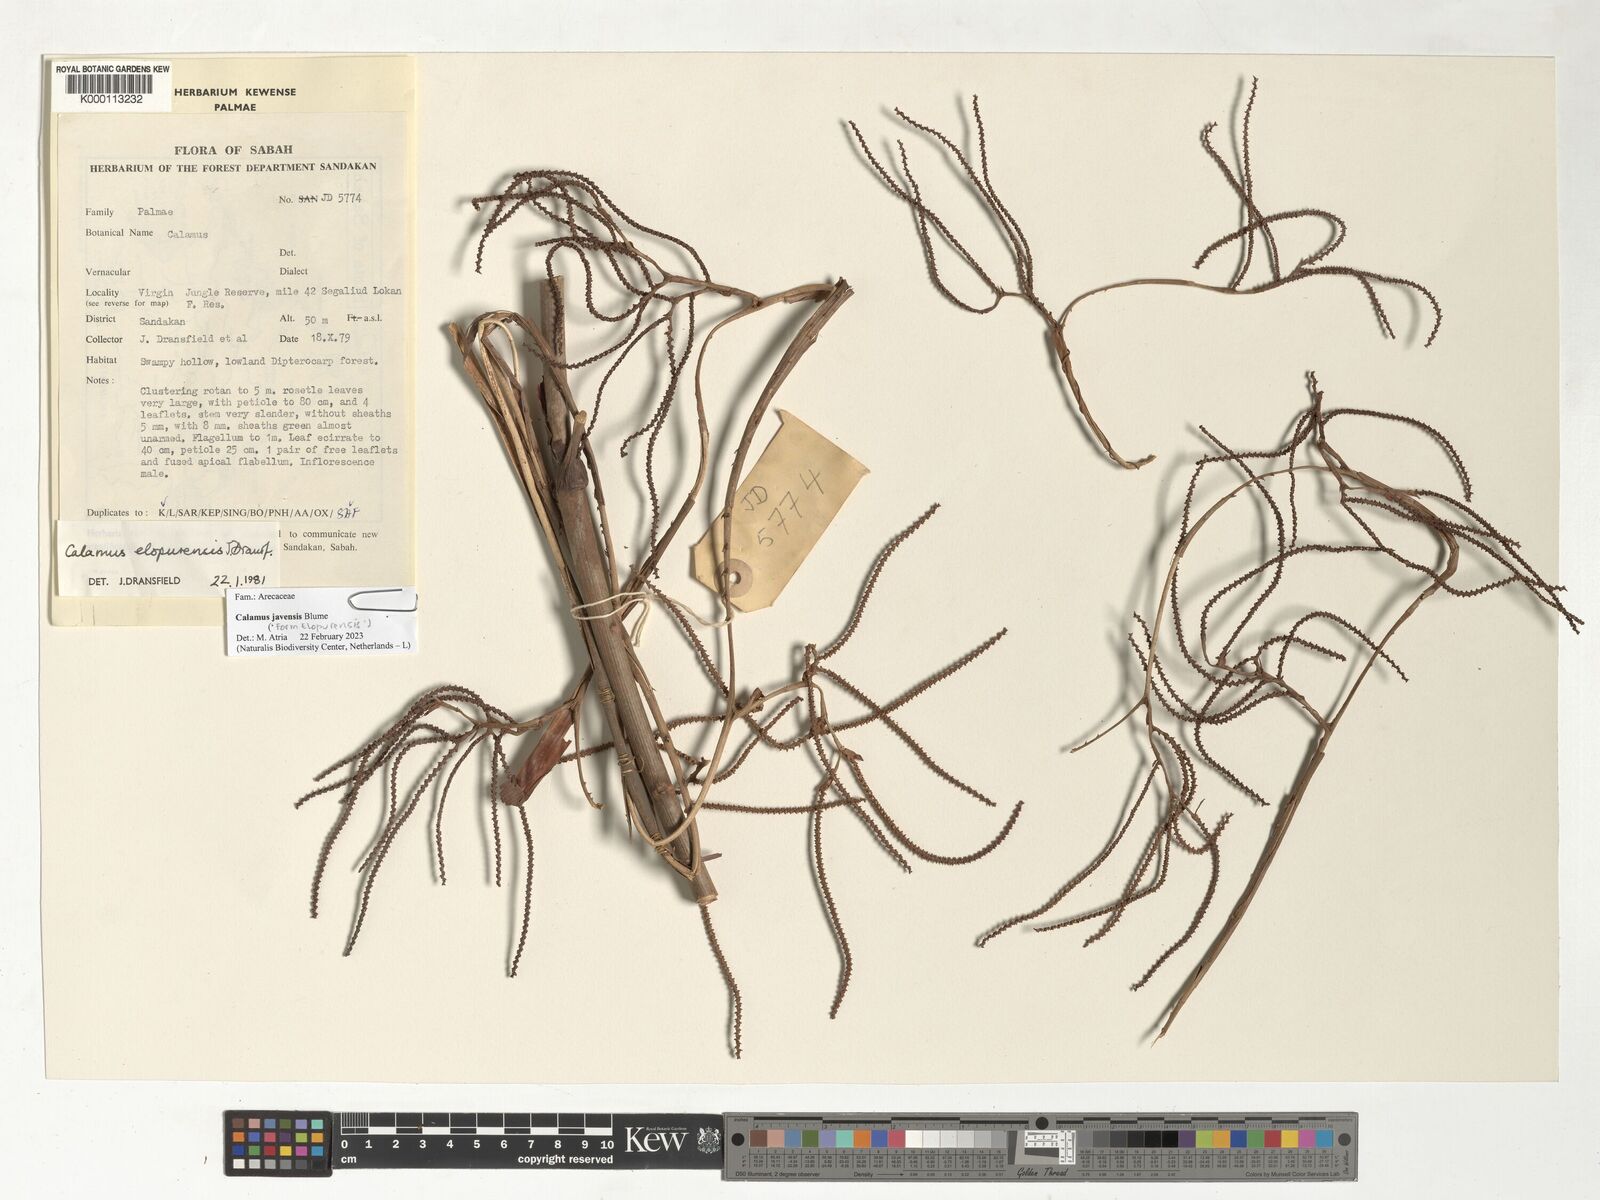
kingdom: Plantae
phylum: Tracheophyta
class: Liliopsida
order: Arecales
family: Arecaceae
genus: Calamus
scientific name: Calamus javensis
